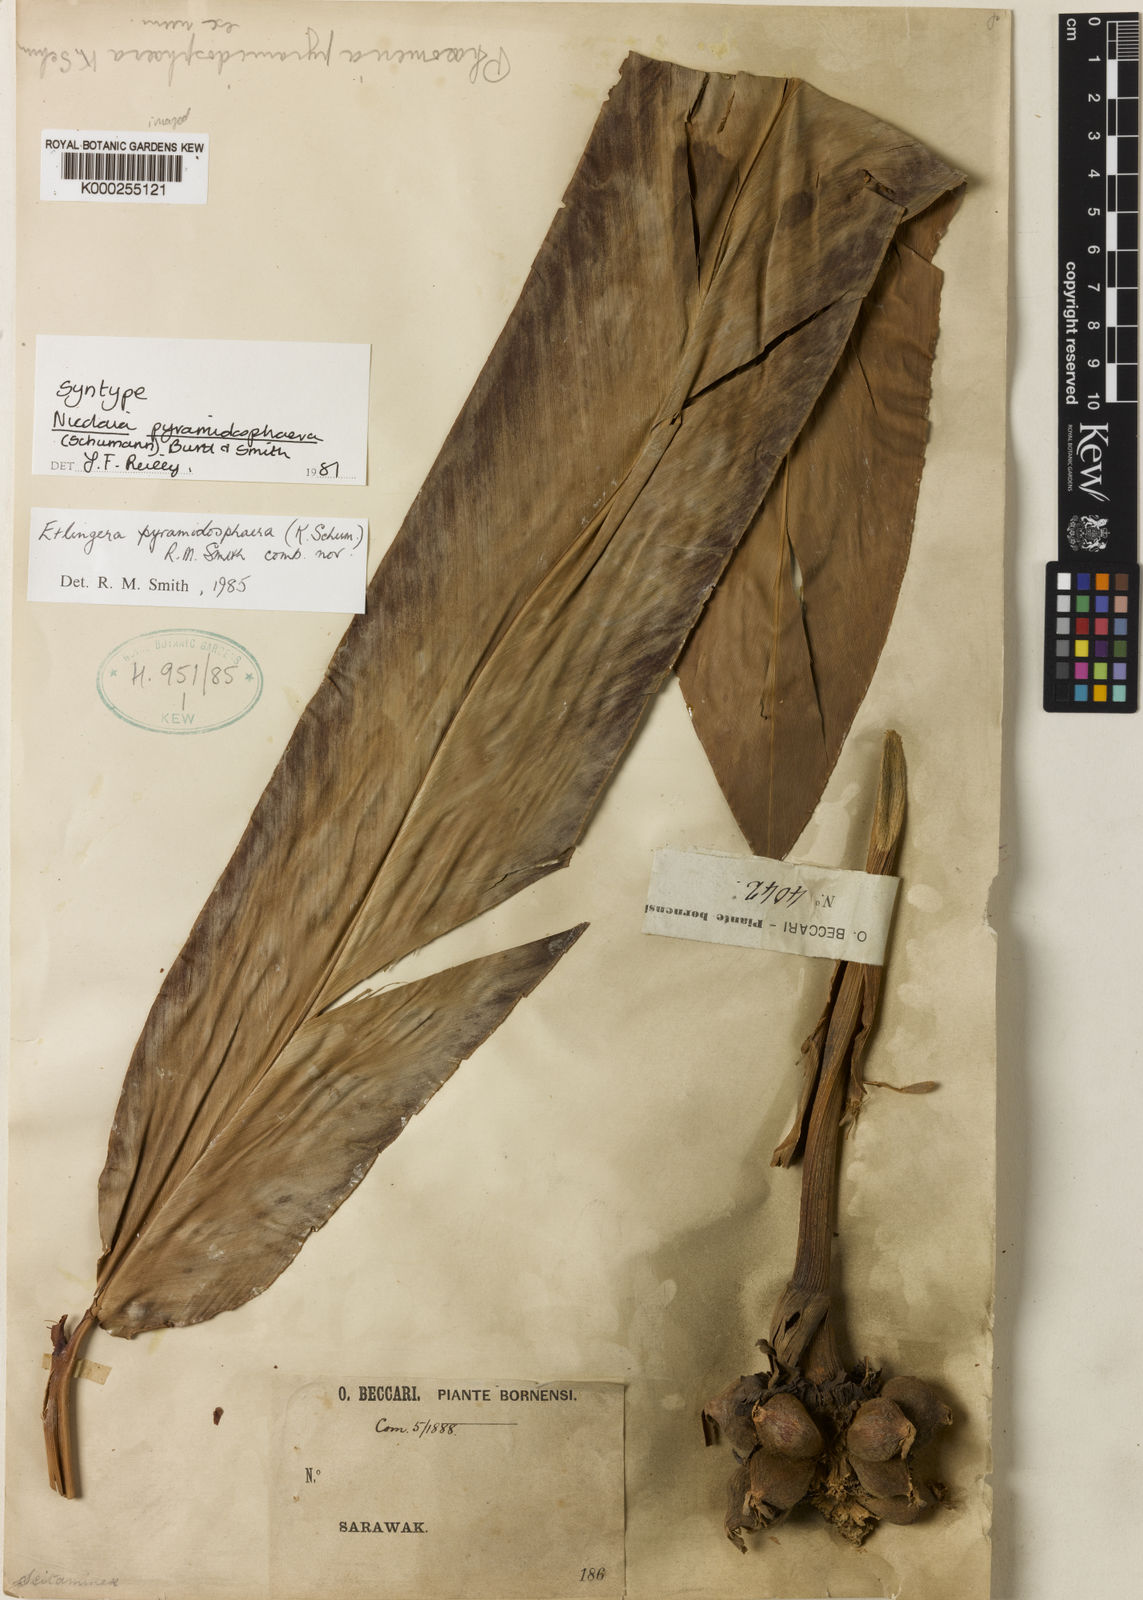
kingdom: Plantae
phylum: Tracheophyta
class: Liliopsida
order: Zingiberales
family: Zingiberaceae
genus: Etlingera
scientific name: Etlingera pyramidosphaera
